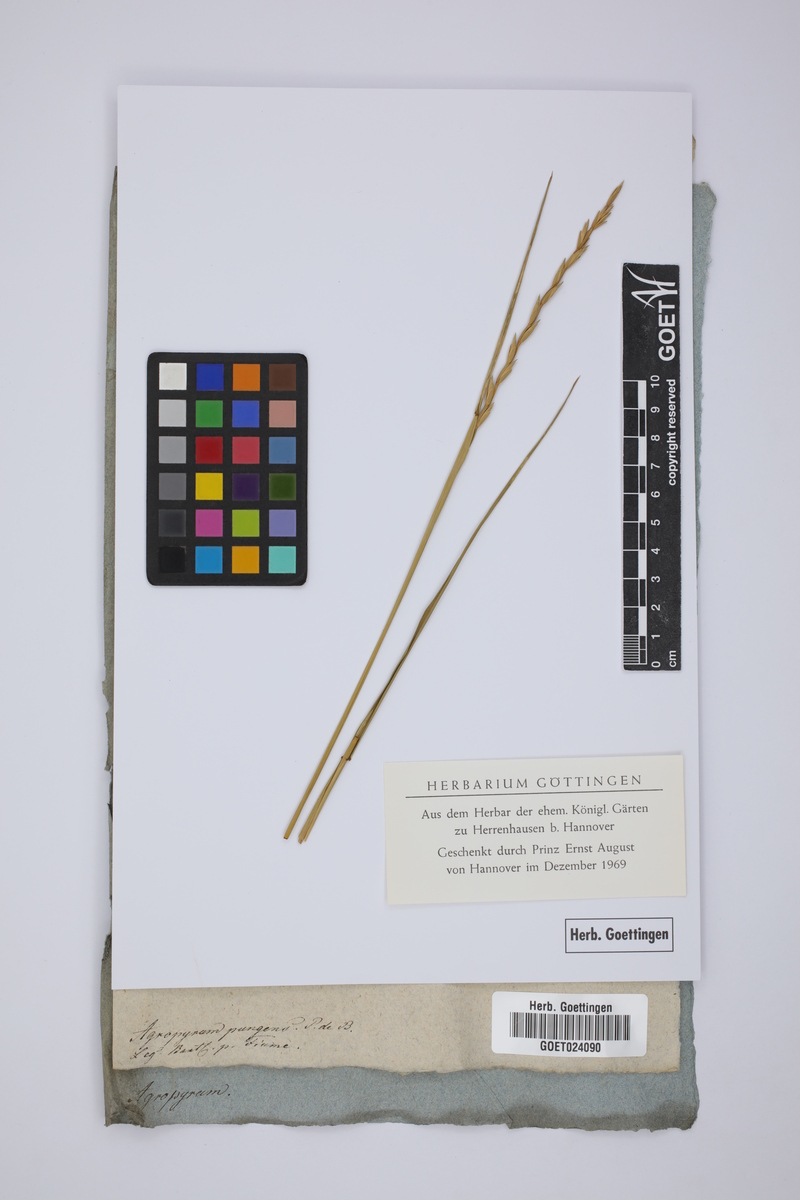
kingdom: Plantae
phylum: Tracheophyta
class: Liliopsida
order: Poales
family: Poaceae
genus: Elymus
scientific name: Elymus pungens
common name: Sea couch
